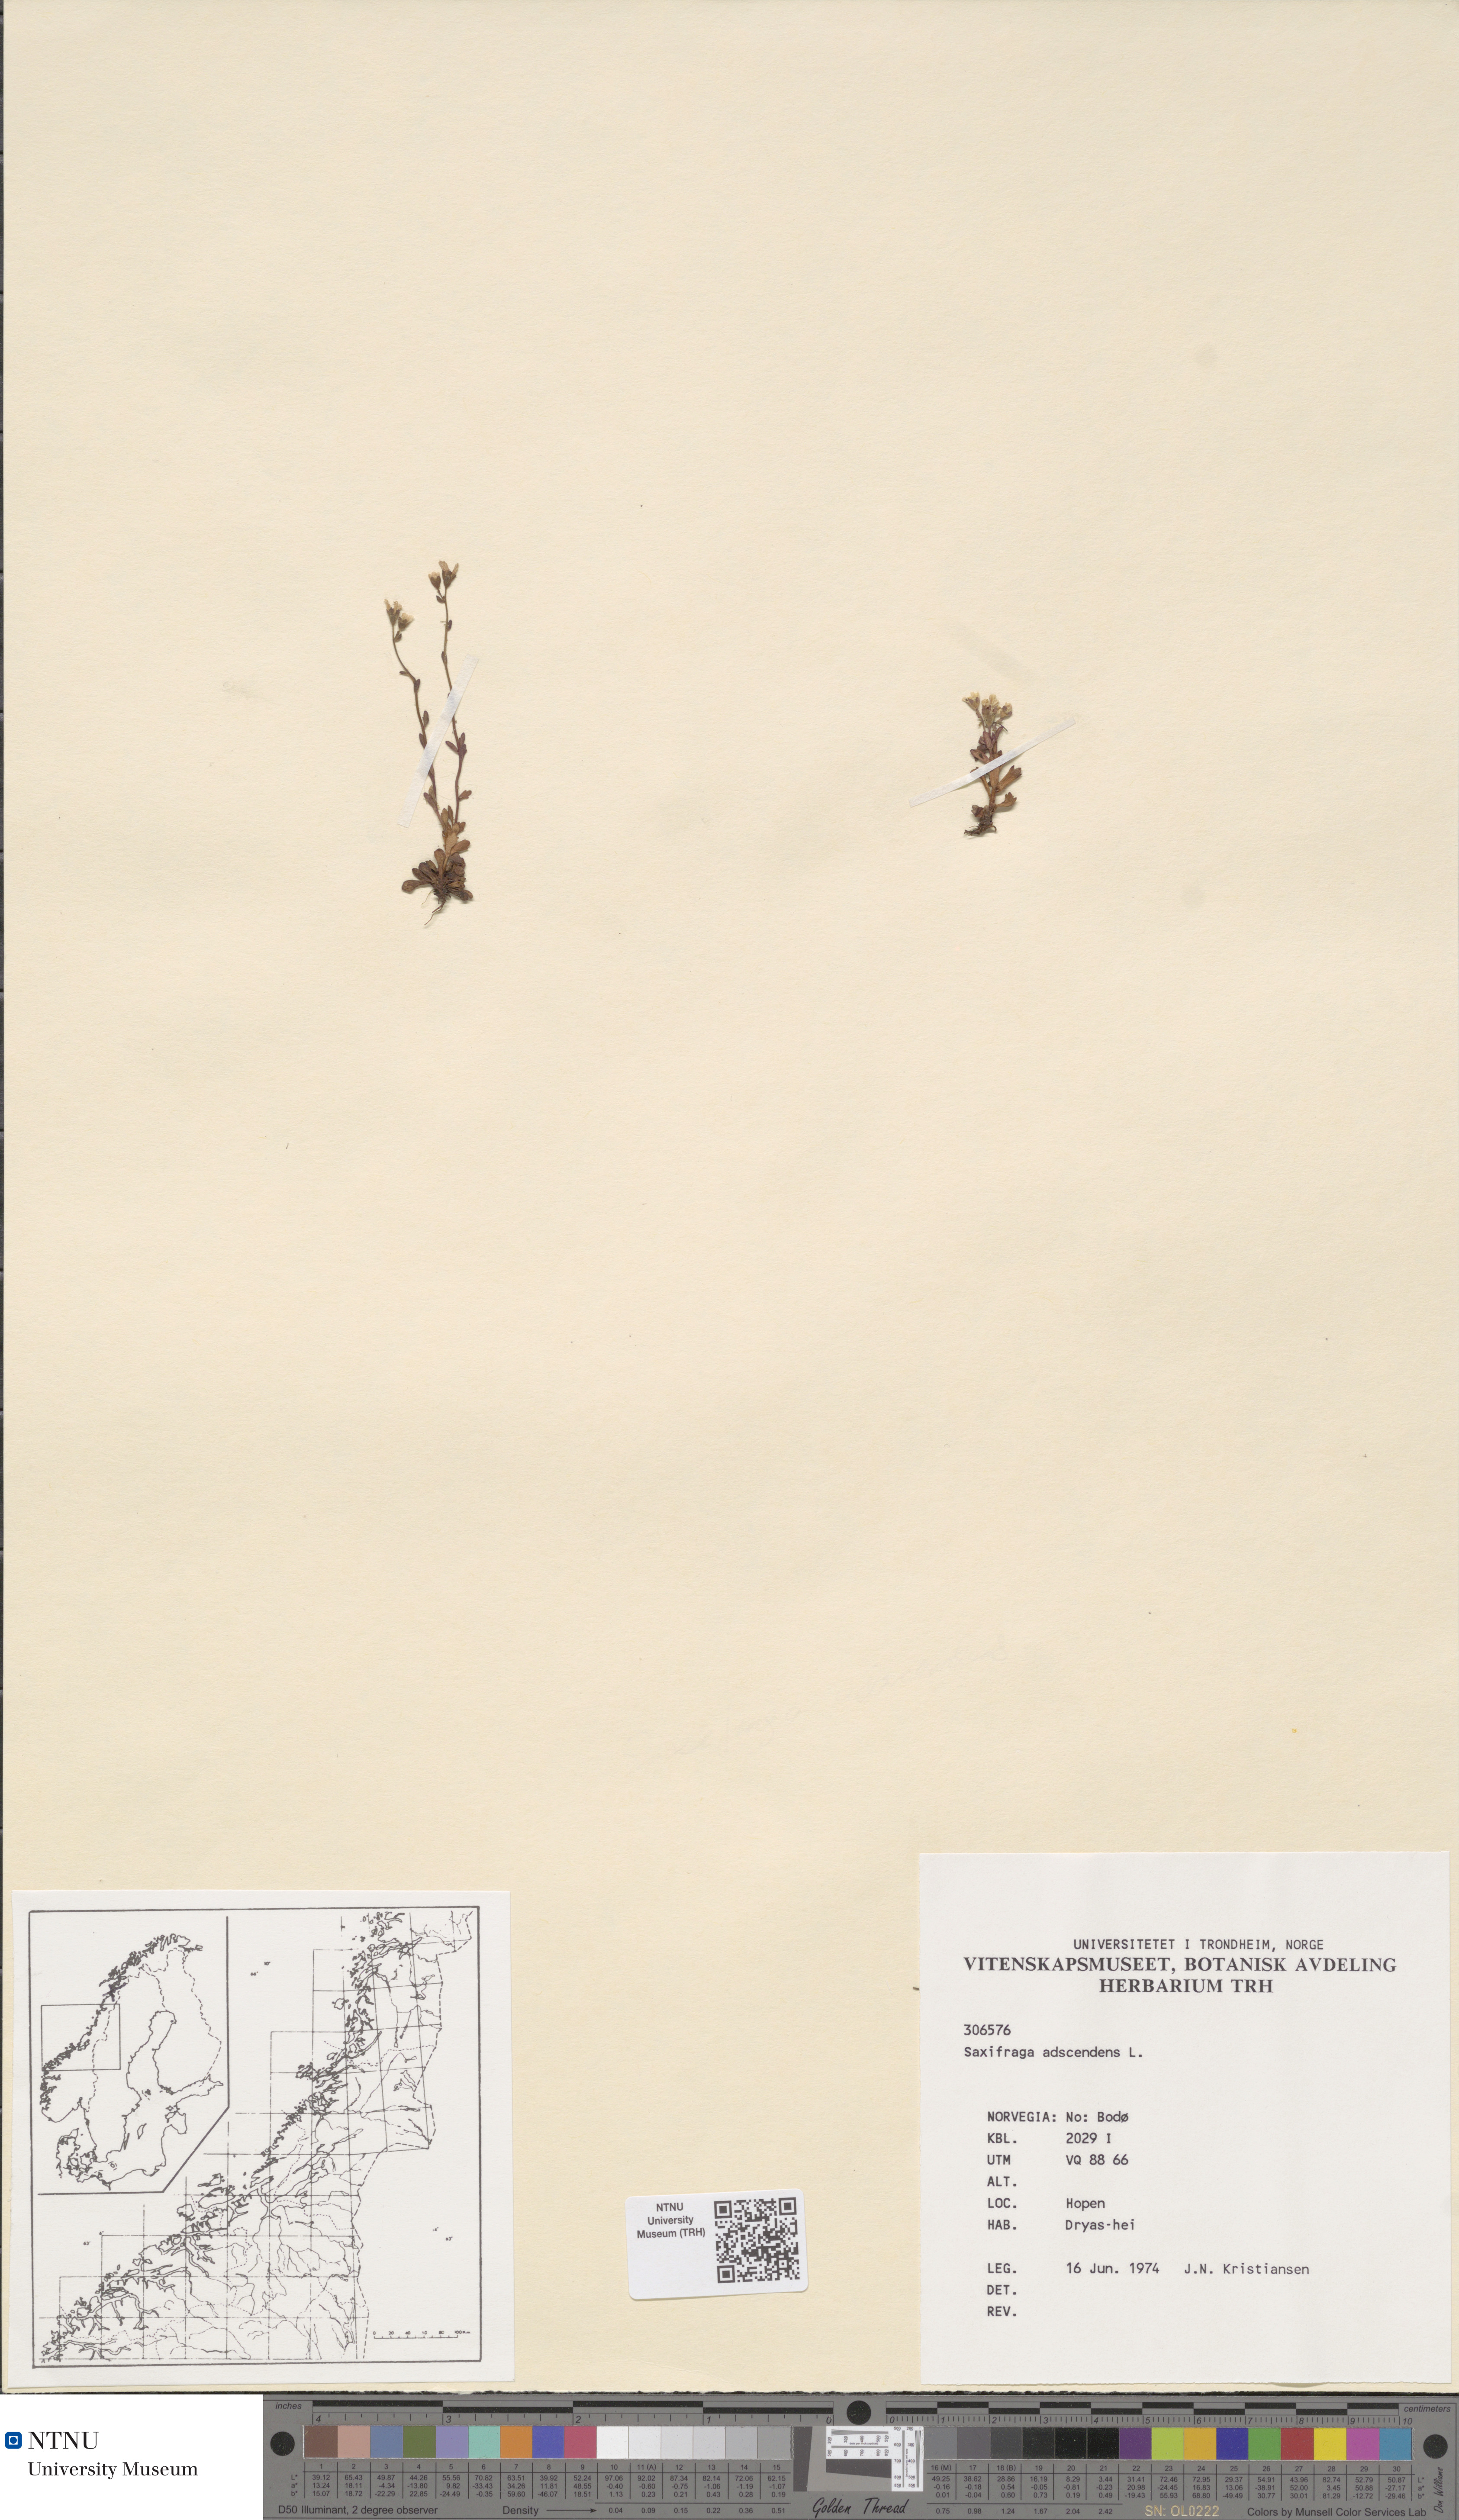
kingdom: Plantae
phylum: Tracheophyta
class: Magnoliopsida
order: Saxifragales
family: Saxifragaceae
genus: Saxifraga
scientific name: Saxifraga adscendens
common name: Ascending saxifrage
